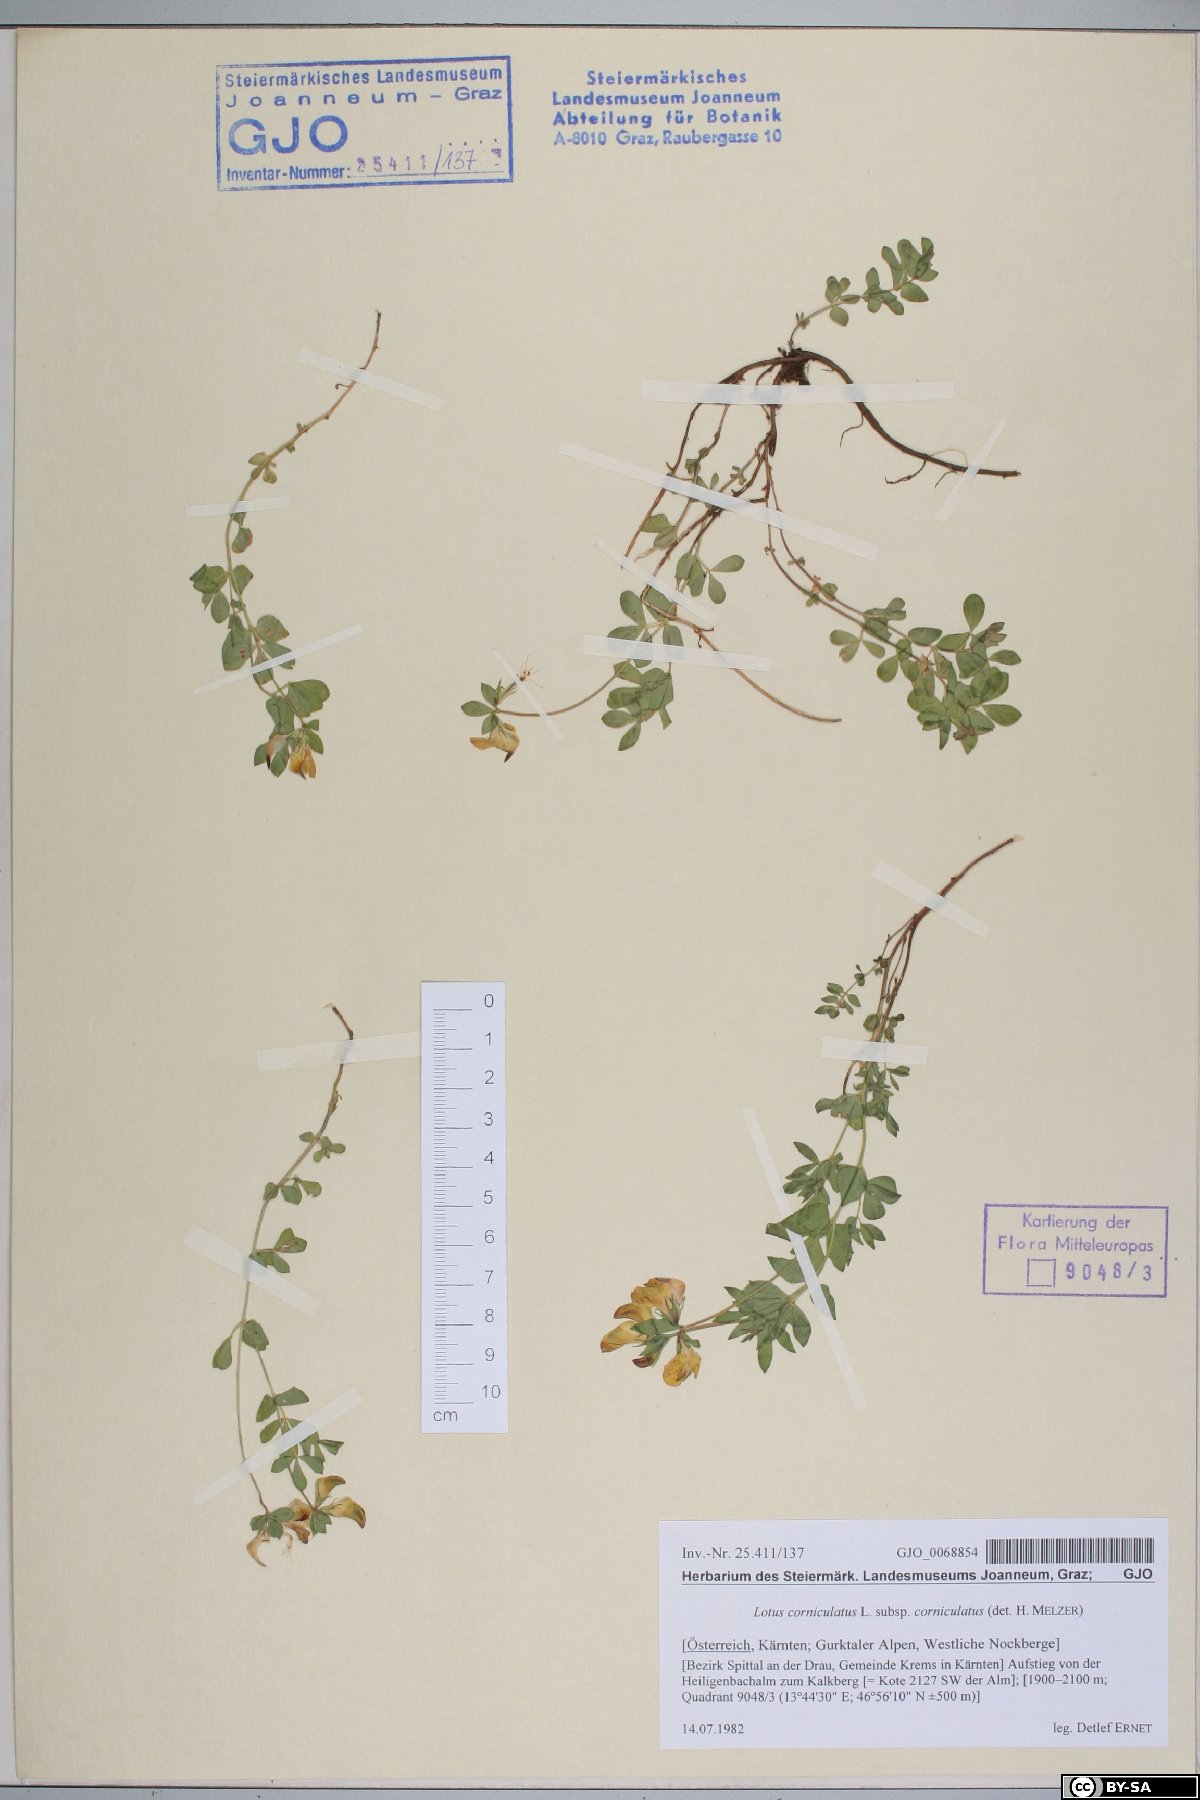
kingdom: Plantae
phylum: Tracheophyta
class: Magnoliopsida
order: Fabales
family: Fabaceae
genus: Lotus
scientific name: Lotus corniculatus
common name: Common bird's-foot-trefoil
